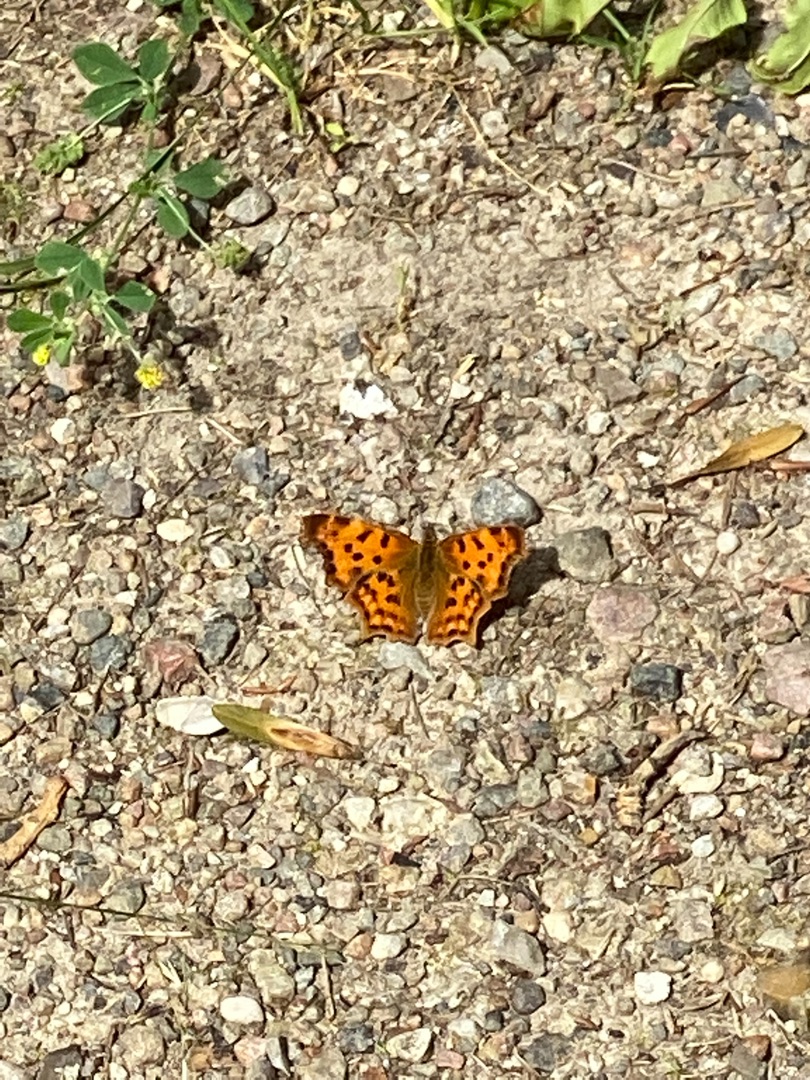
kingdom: Animalia
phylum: Arthropoda
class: Insecta
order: Lepidoptera
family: Nymphalidae
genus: Polygonia
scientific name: Polygonia c-album
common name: Det hvide C
